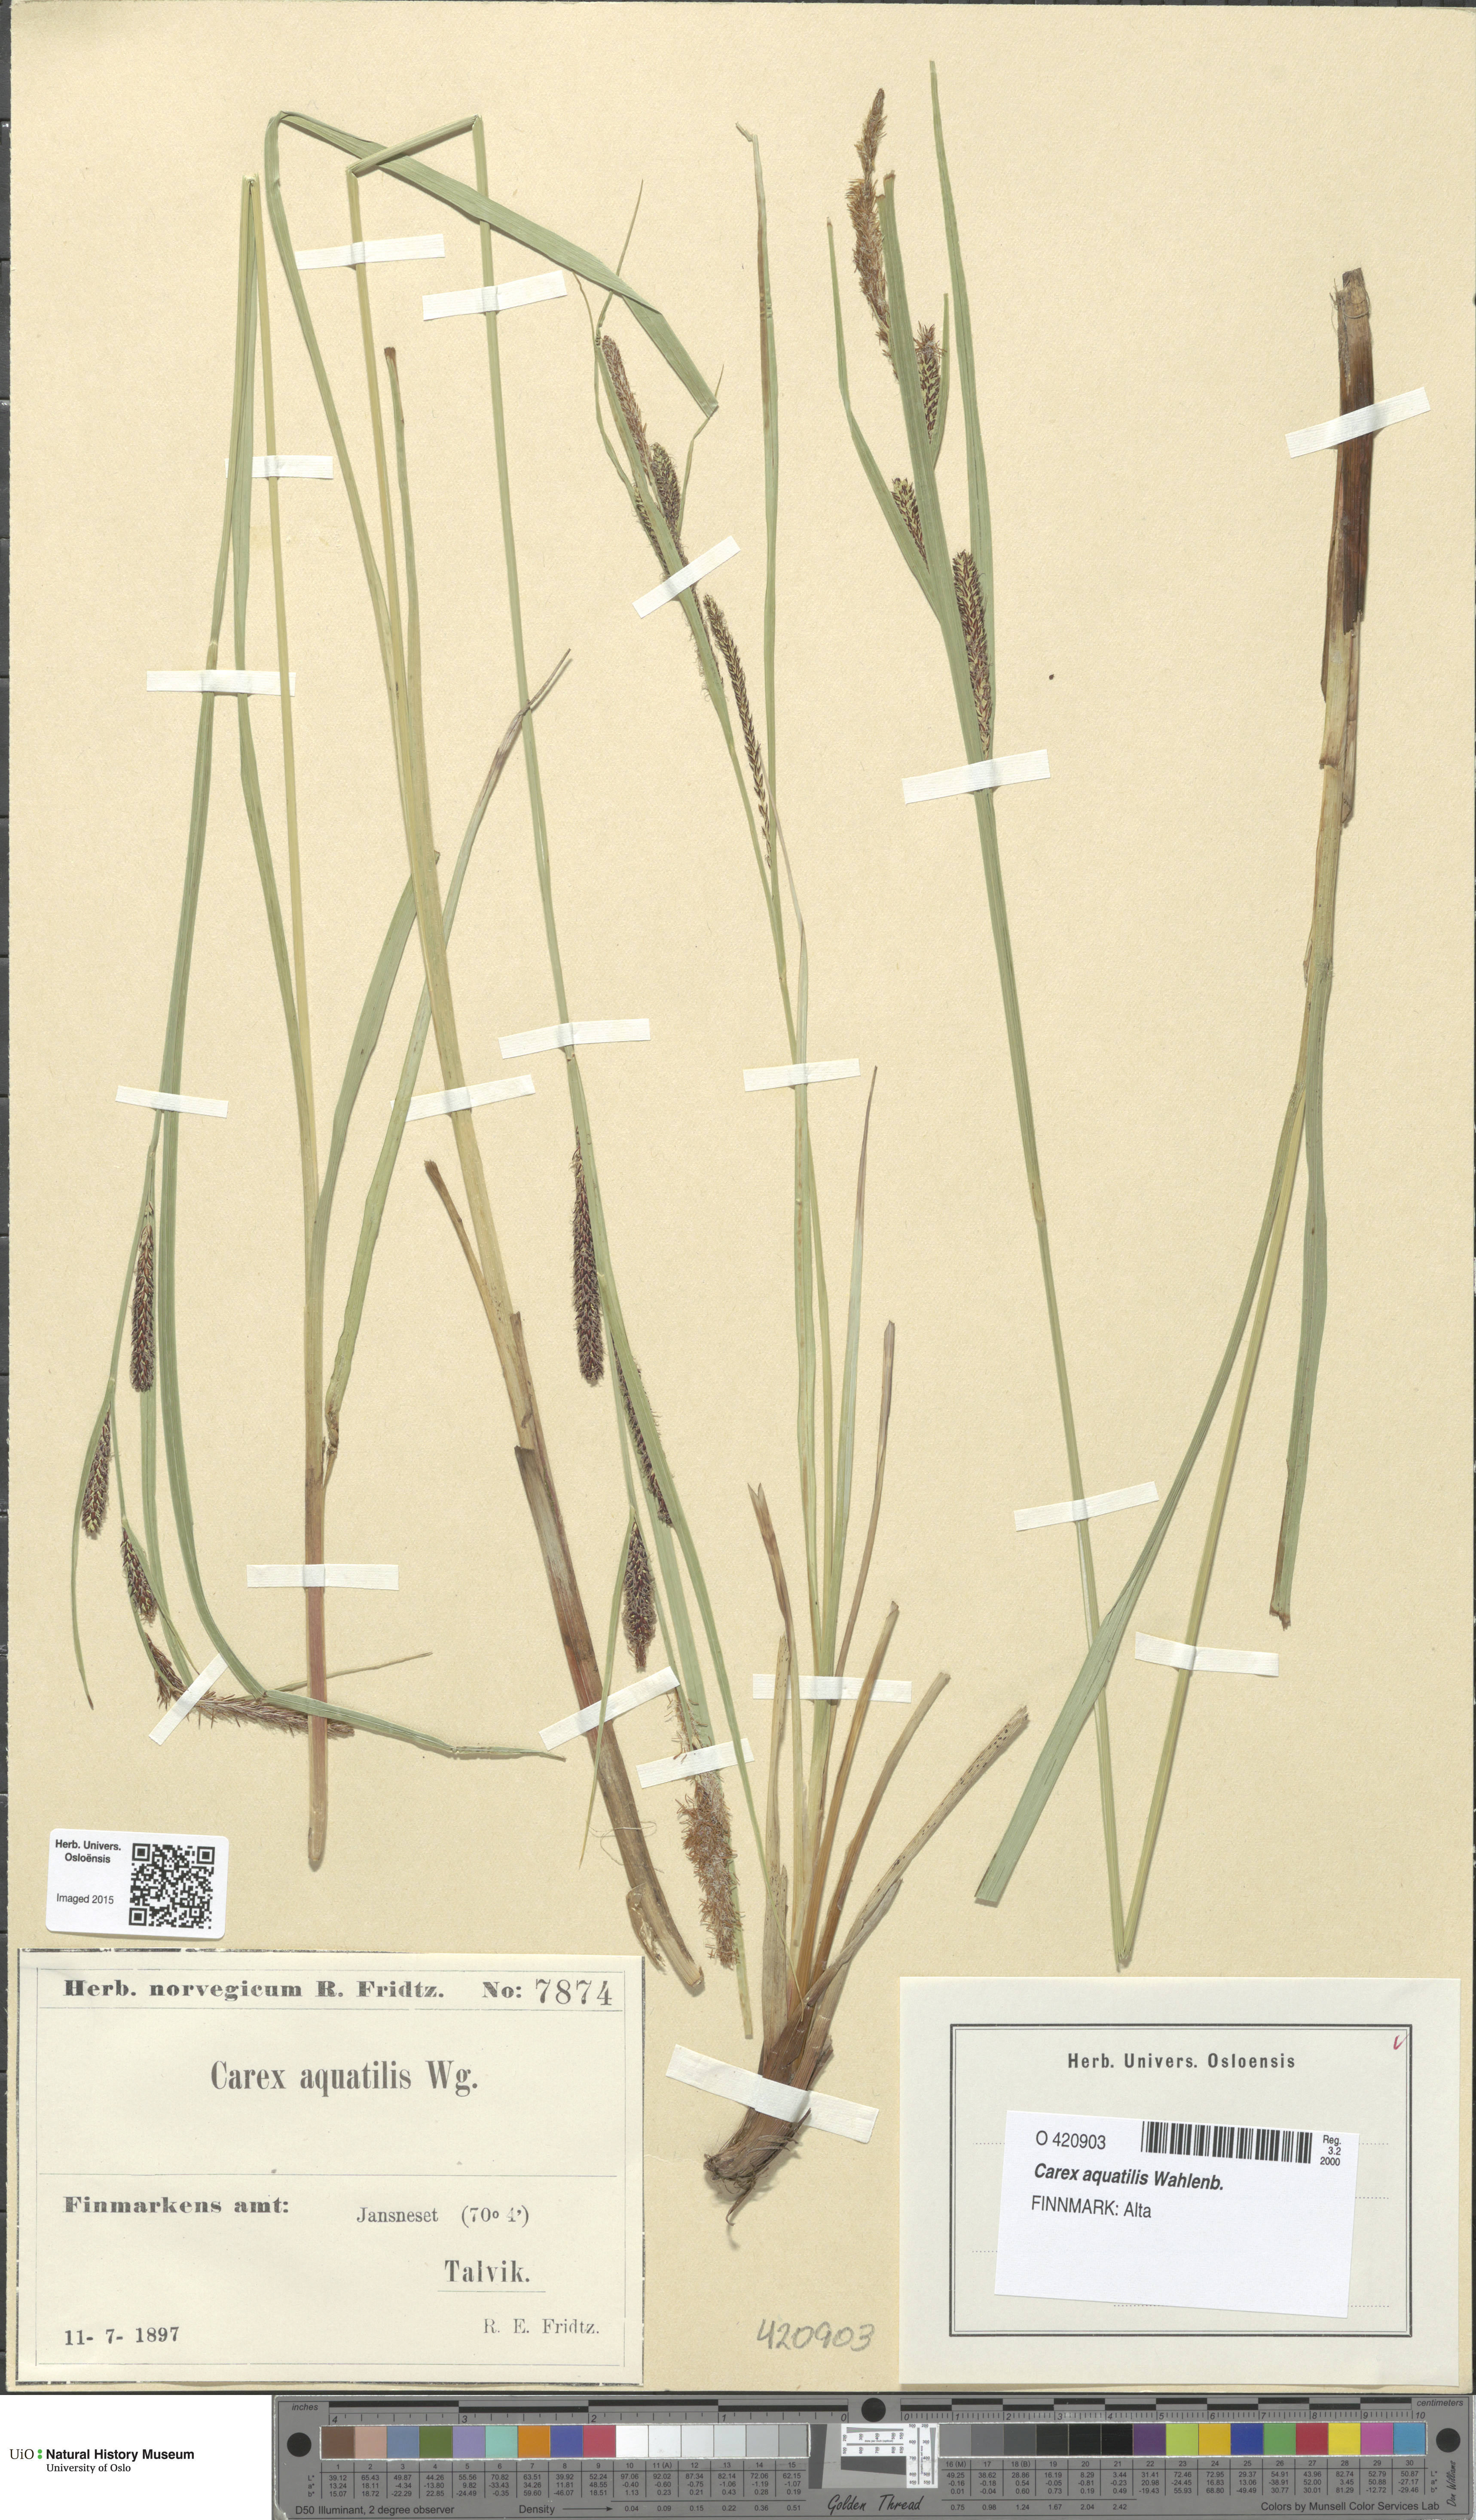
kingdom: Plantae
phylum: Tracheophyta
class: Liliopsida
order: Poales
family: Cyperaceae
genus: Carex
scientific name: Carex aquatilis
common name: Water sedge
